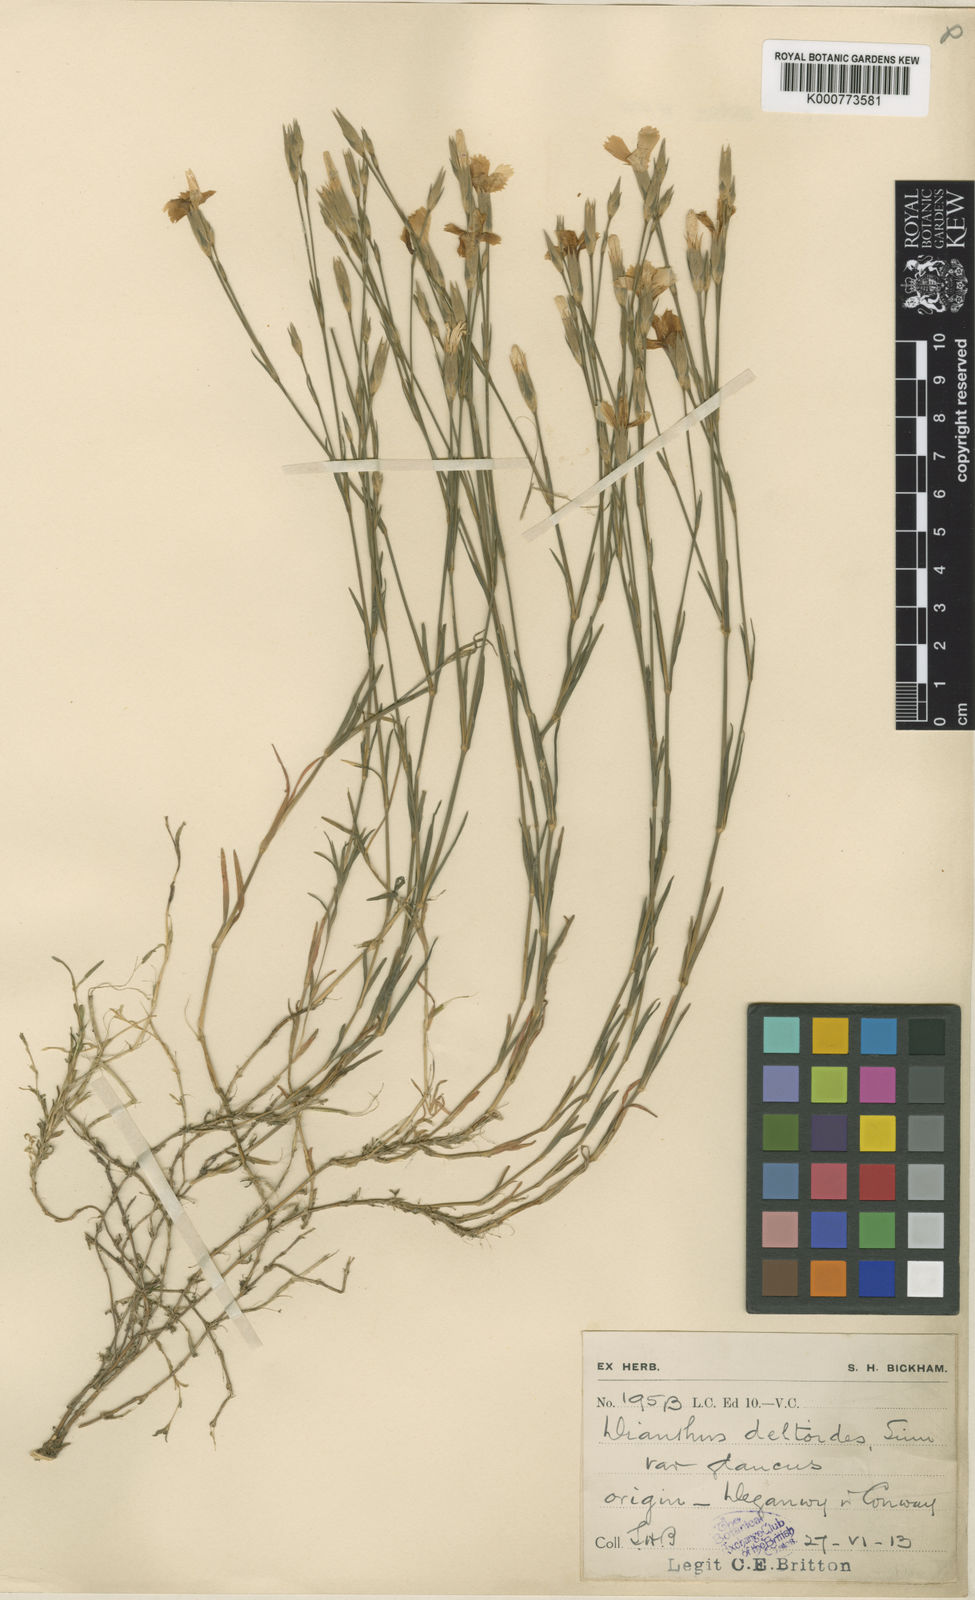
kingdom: Plantae
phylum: Tracheophyta
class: Magnoliopsida
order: Caryophyllales
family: Caryophyllaceae
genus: Dianthus
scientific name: Dianthus deltoides
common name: Maiden pink
